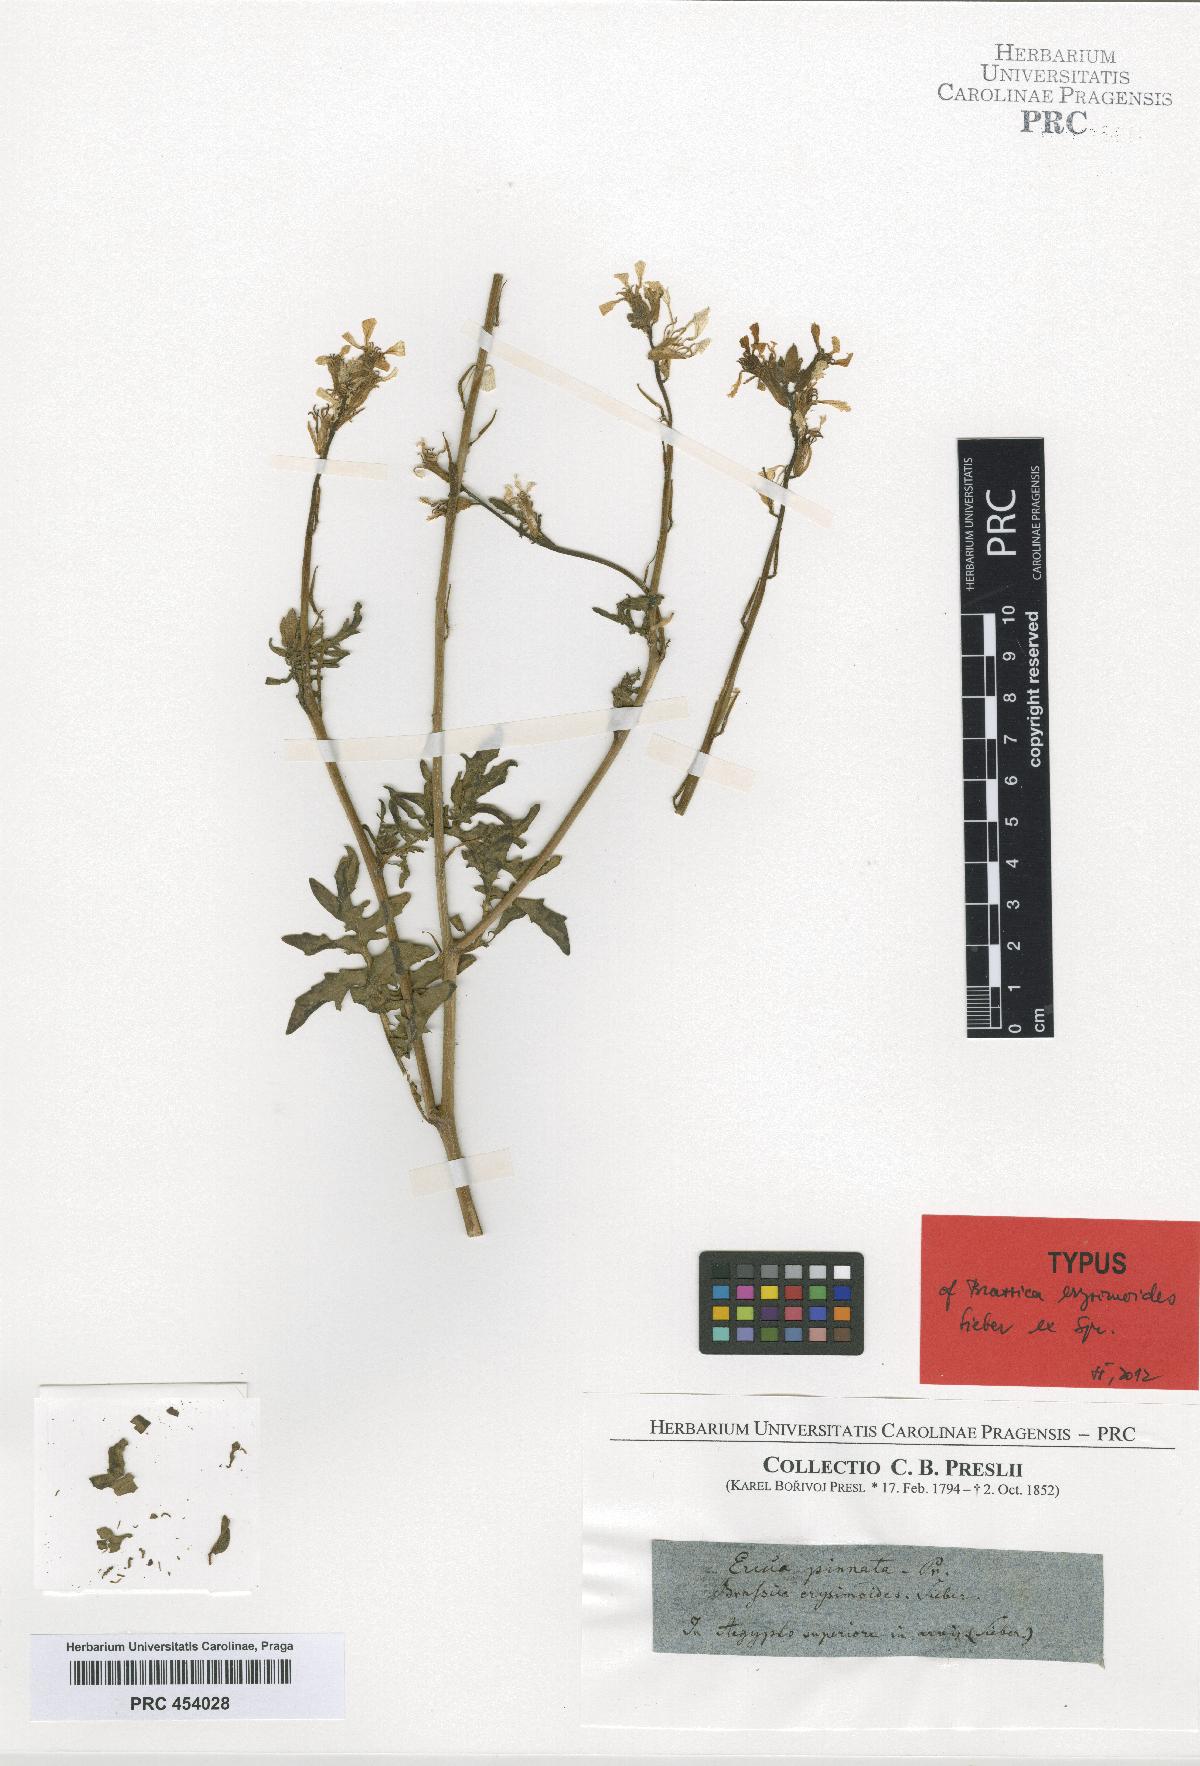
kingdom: Plantae
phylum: Tracheophyta
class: Magnoliopsida
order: Brassicales
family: Brassicaceae
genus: Eruca
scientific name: Eruca vesicaria
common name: Garden rocket
